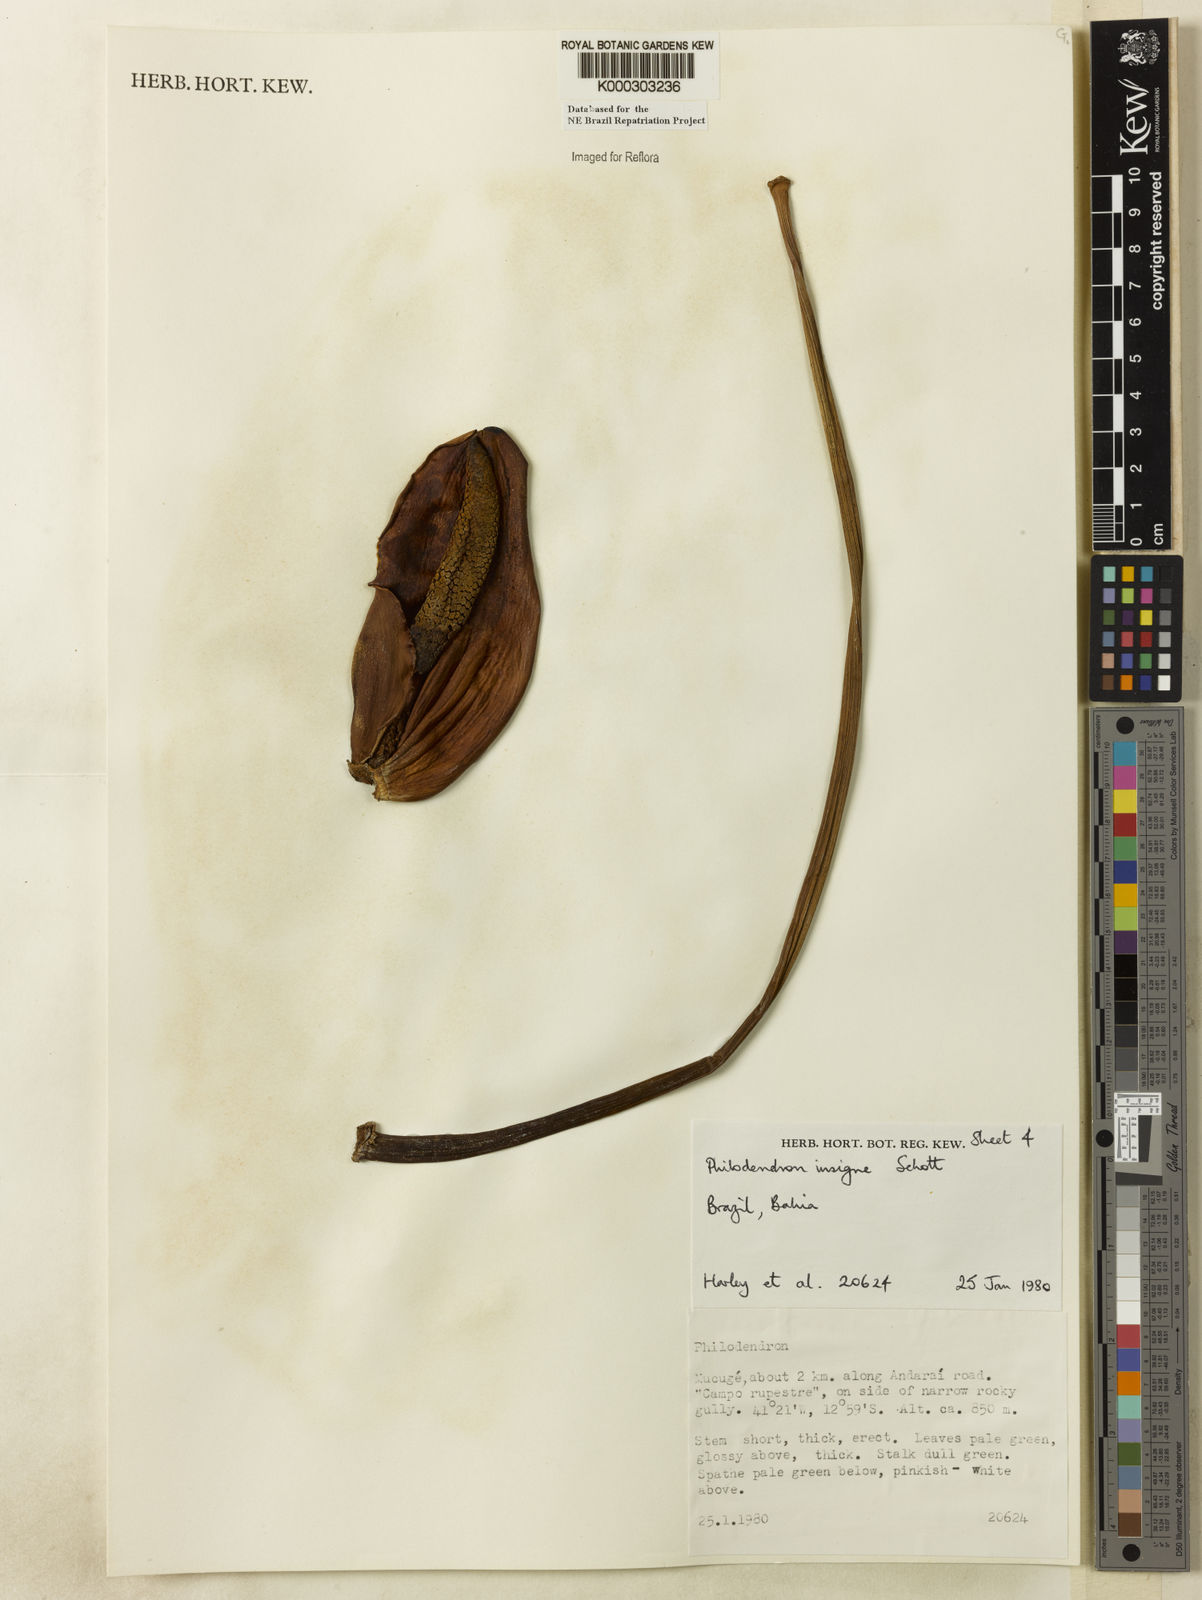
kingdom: Plantae
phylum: Tracheophyta
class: Liliopsida
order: Alismatales
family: Araceae
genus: Philodendron
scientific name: Philodendron insigne
